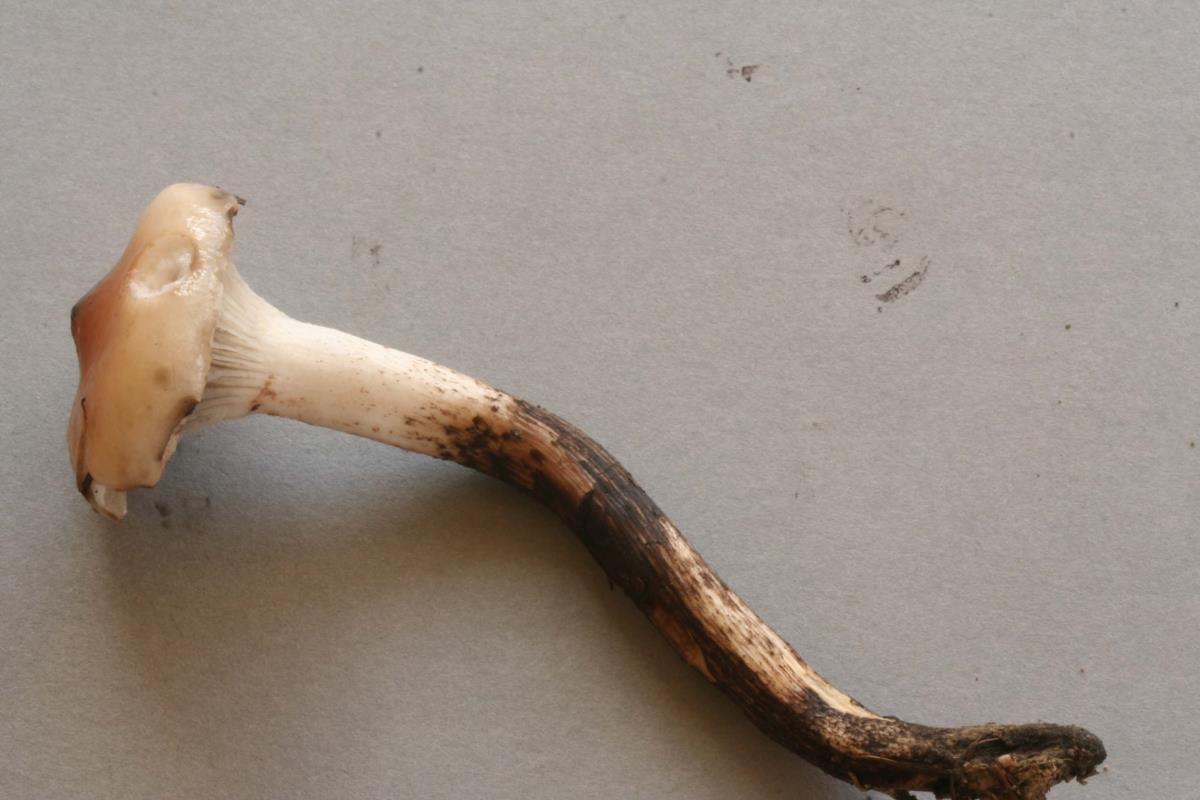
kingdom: Fungi
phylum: Basidiomycota
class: Agaricomycetes
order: Boletales
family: Gomphidiaceae
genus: Gomphidius
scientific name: Gomphidius maculatus
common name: Larch spike
